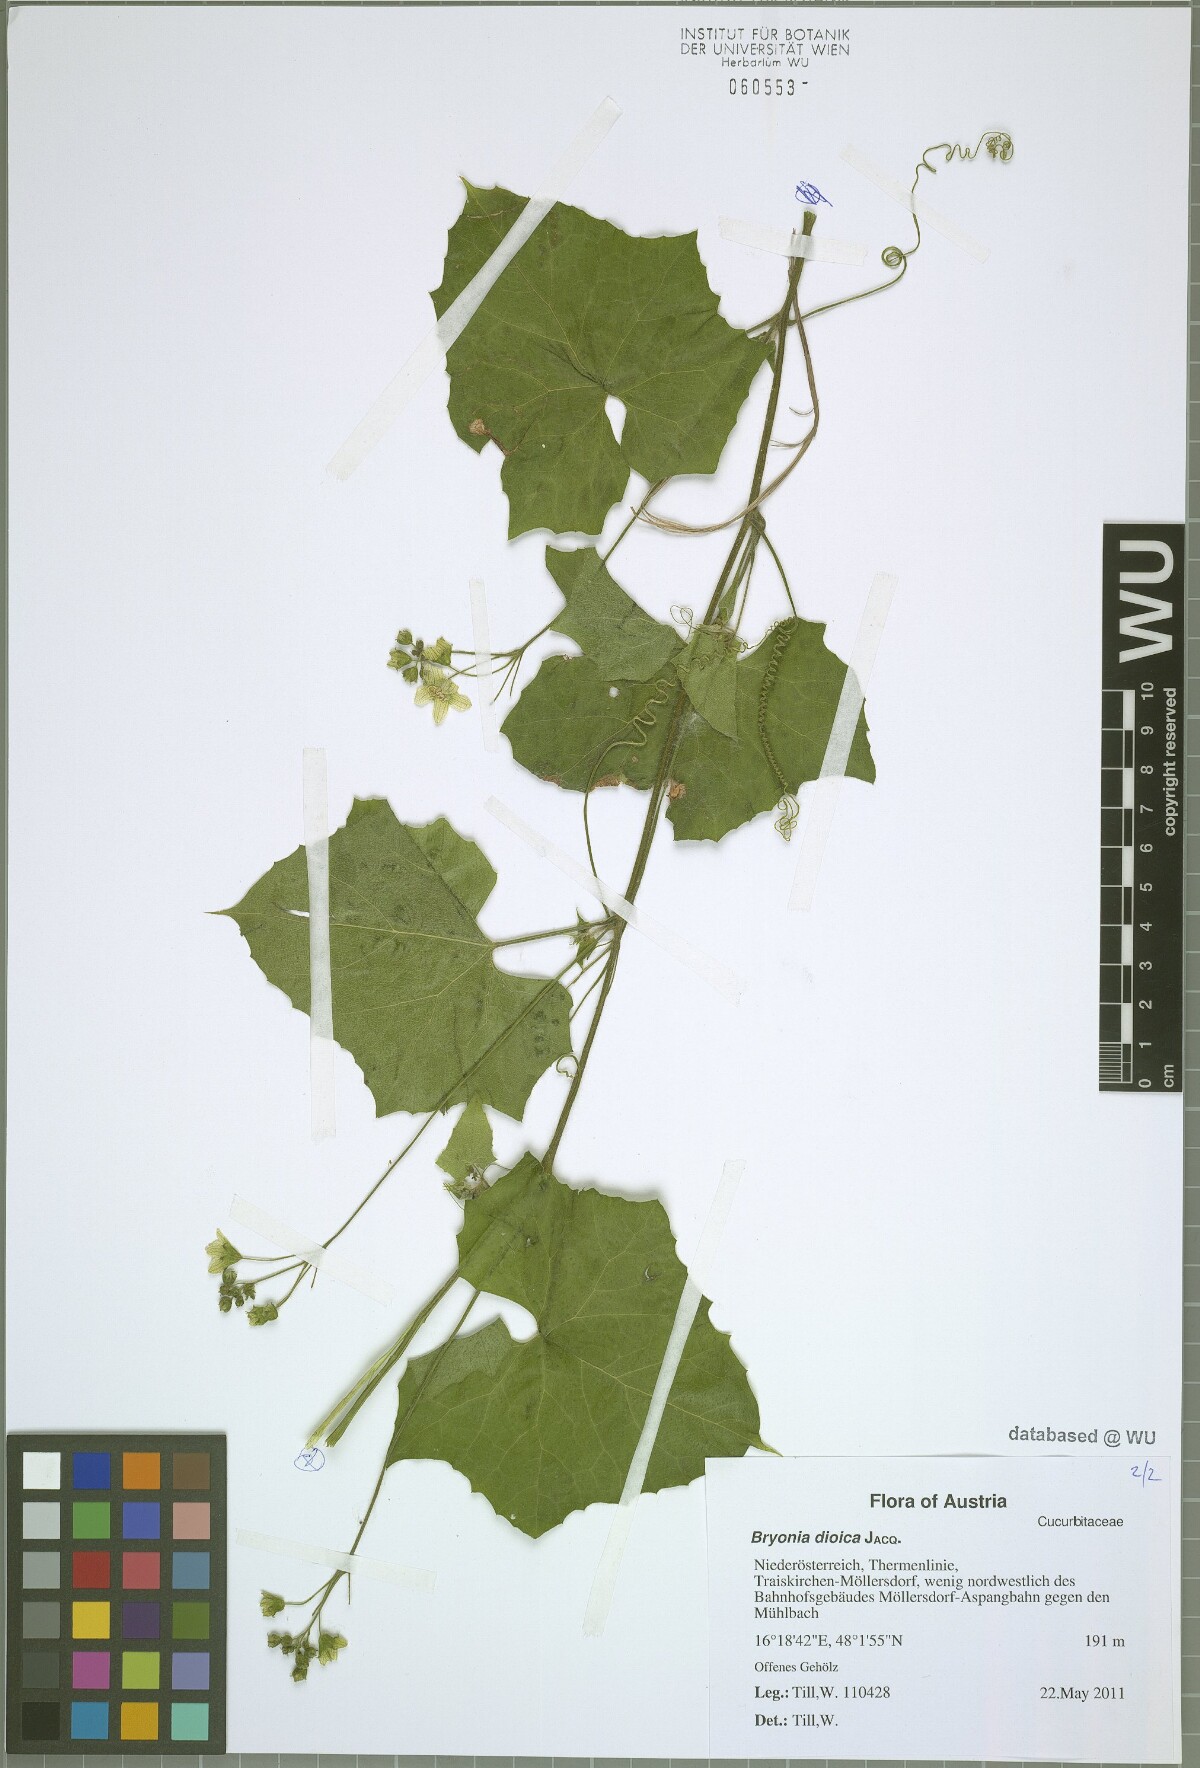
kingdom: Plantae
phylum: Tracheophyta
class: Magnoliopsida
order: Cucurbitales
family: Cucurbitaceae
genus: Bryonia
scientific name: Bryonia dioica
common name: White bryony
